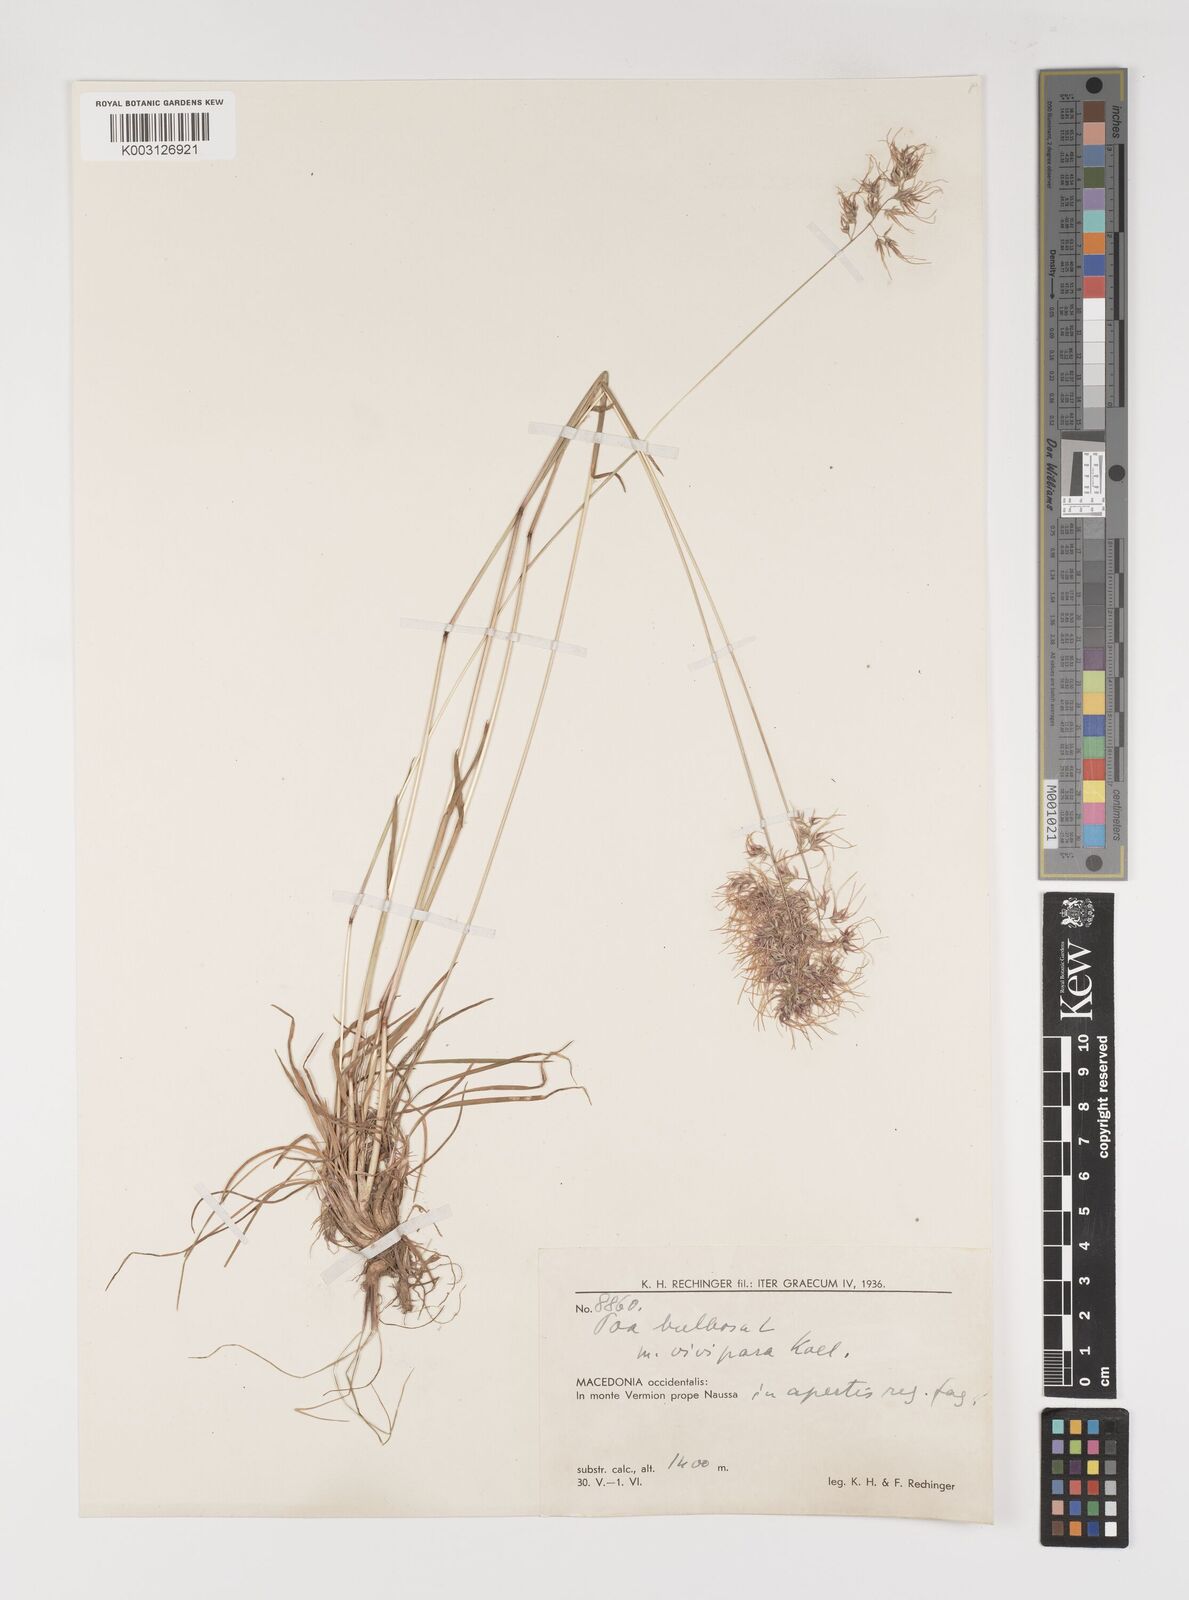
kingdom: Plantae
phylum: Tracheophyta
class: Liliopsida
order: Poales
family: Poaceae
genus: Poa
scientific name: Poa bulbosa
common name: Bulbous bluegrass
